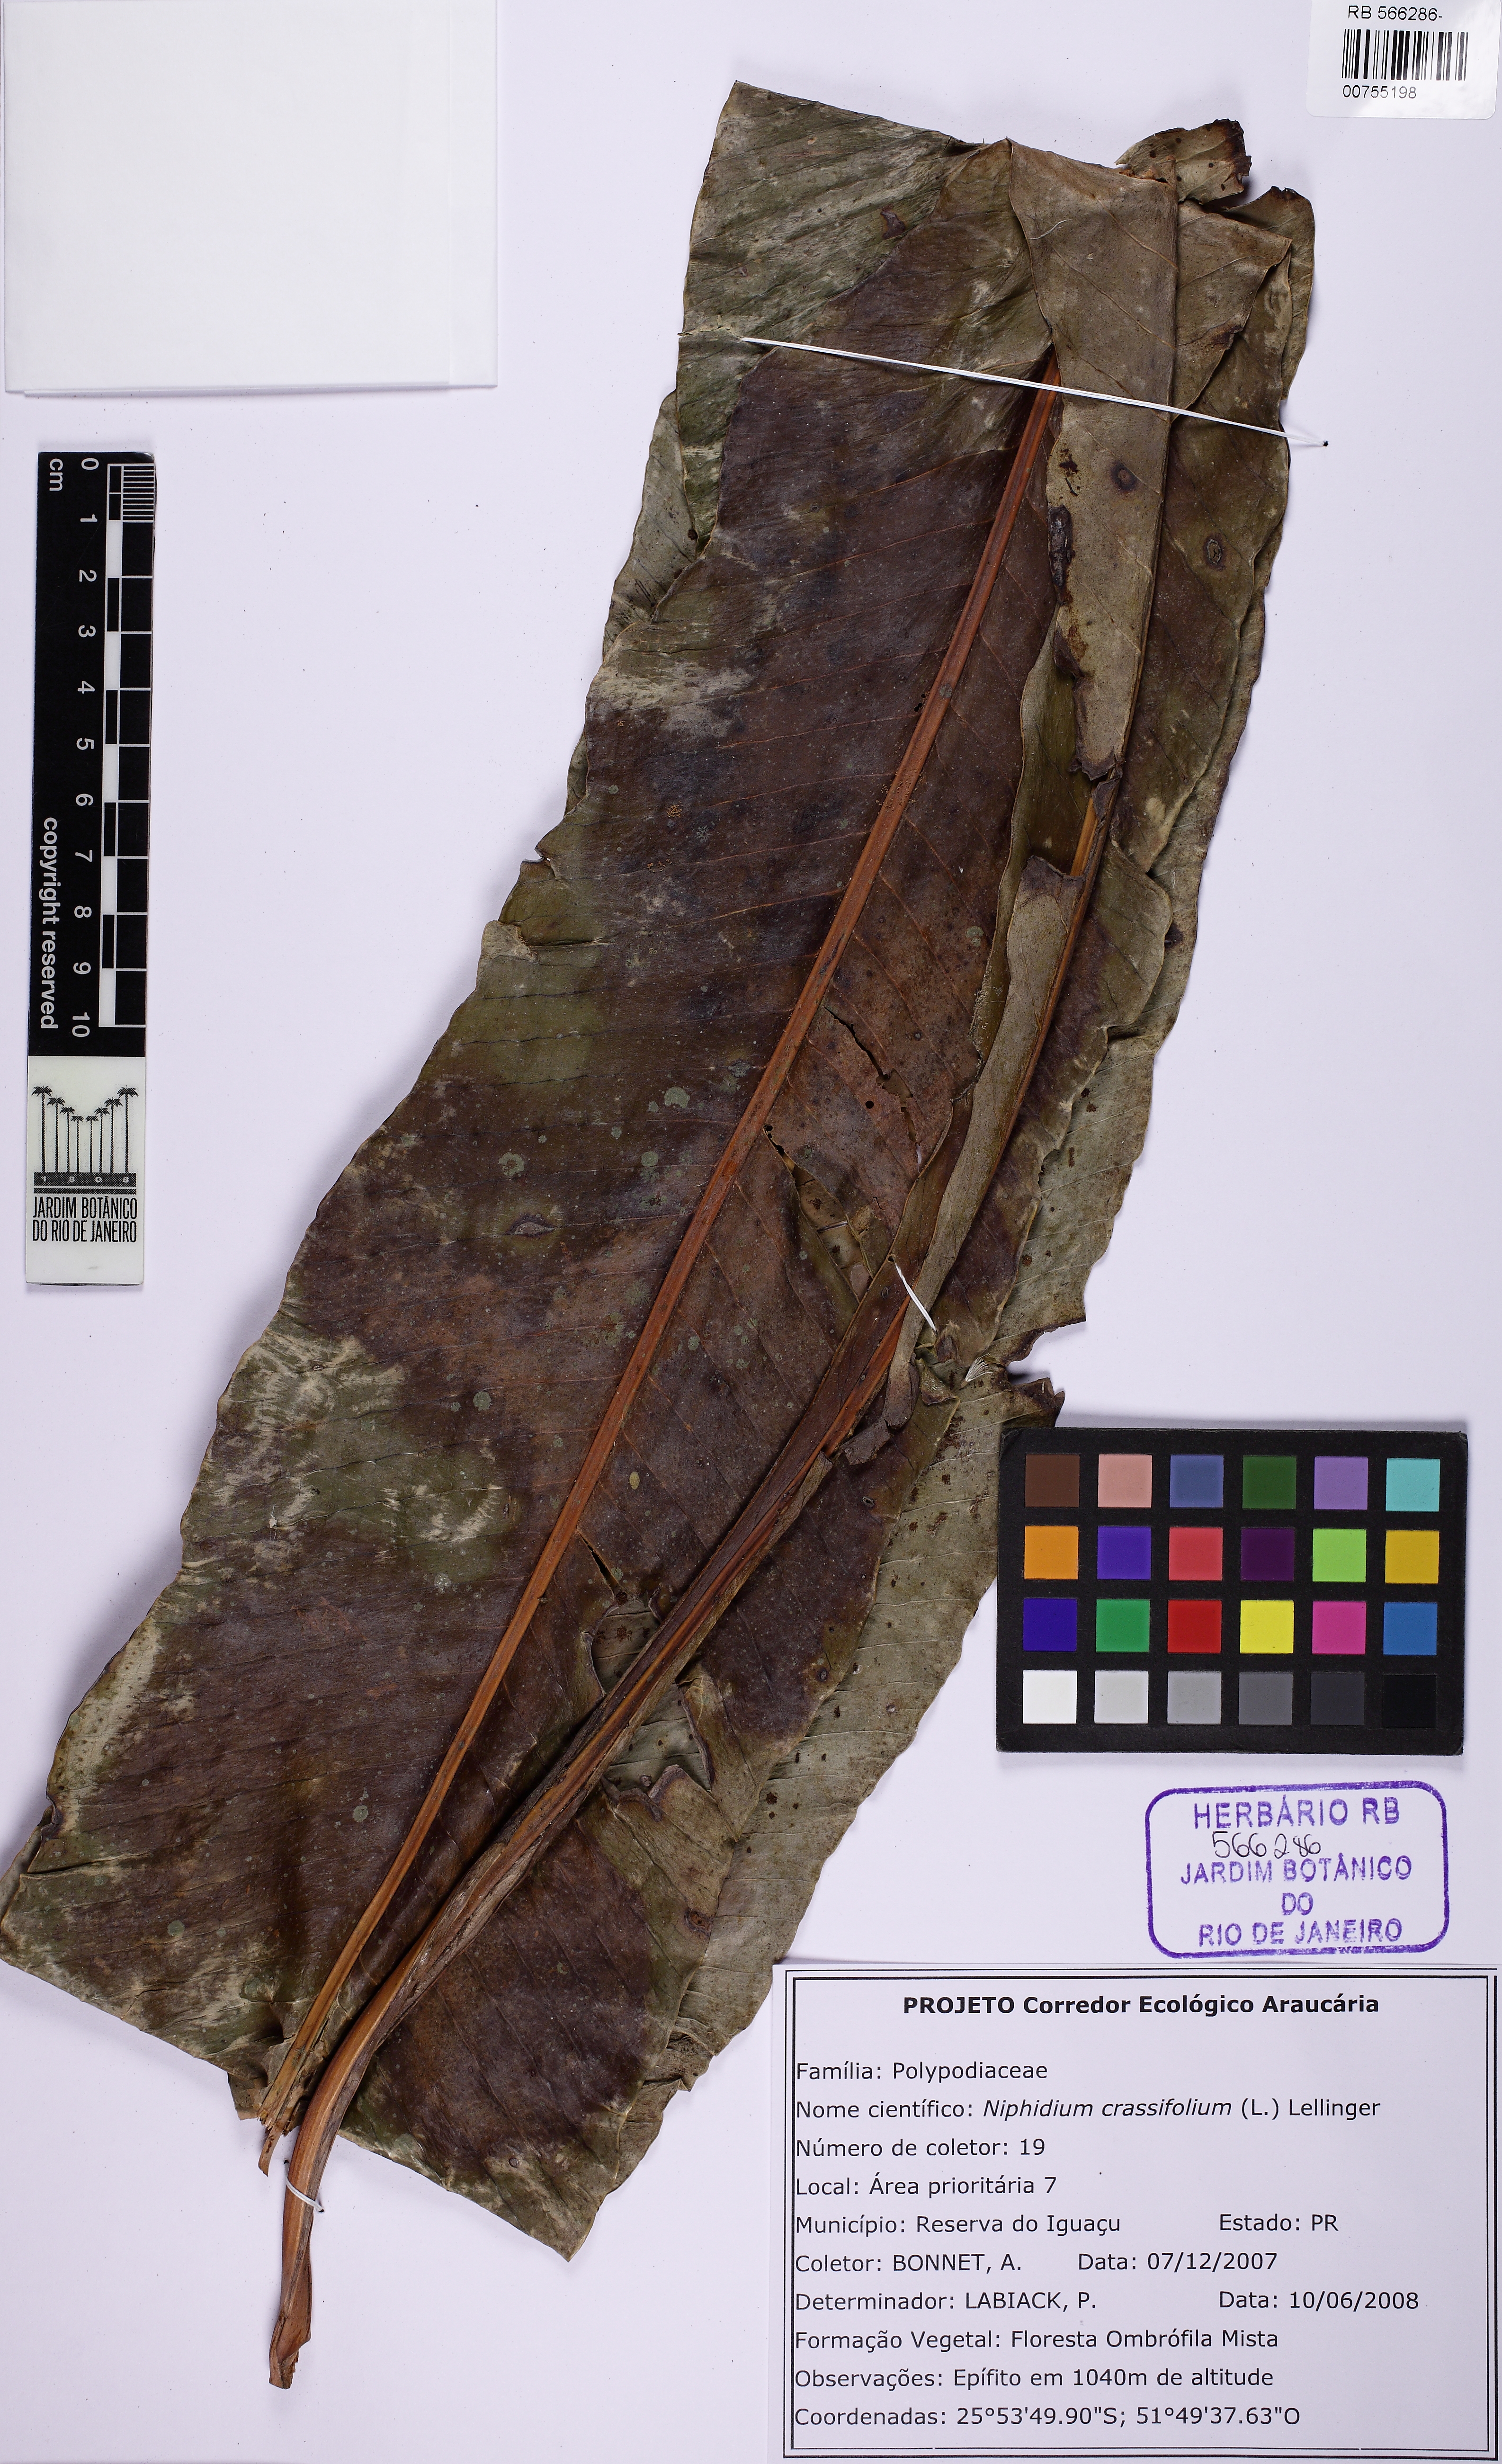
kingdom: Plantae
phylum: Tracheophyta
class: Polypodiopsida
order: Polypodiales
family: Polypodiaceae
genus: Niphidium
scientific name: Niphidium crassifolium
